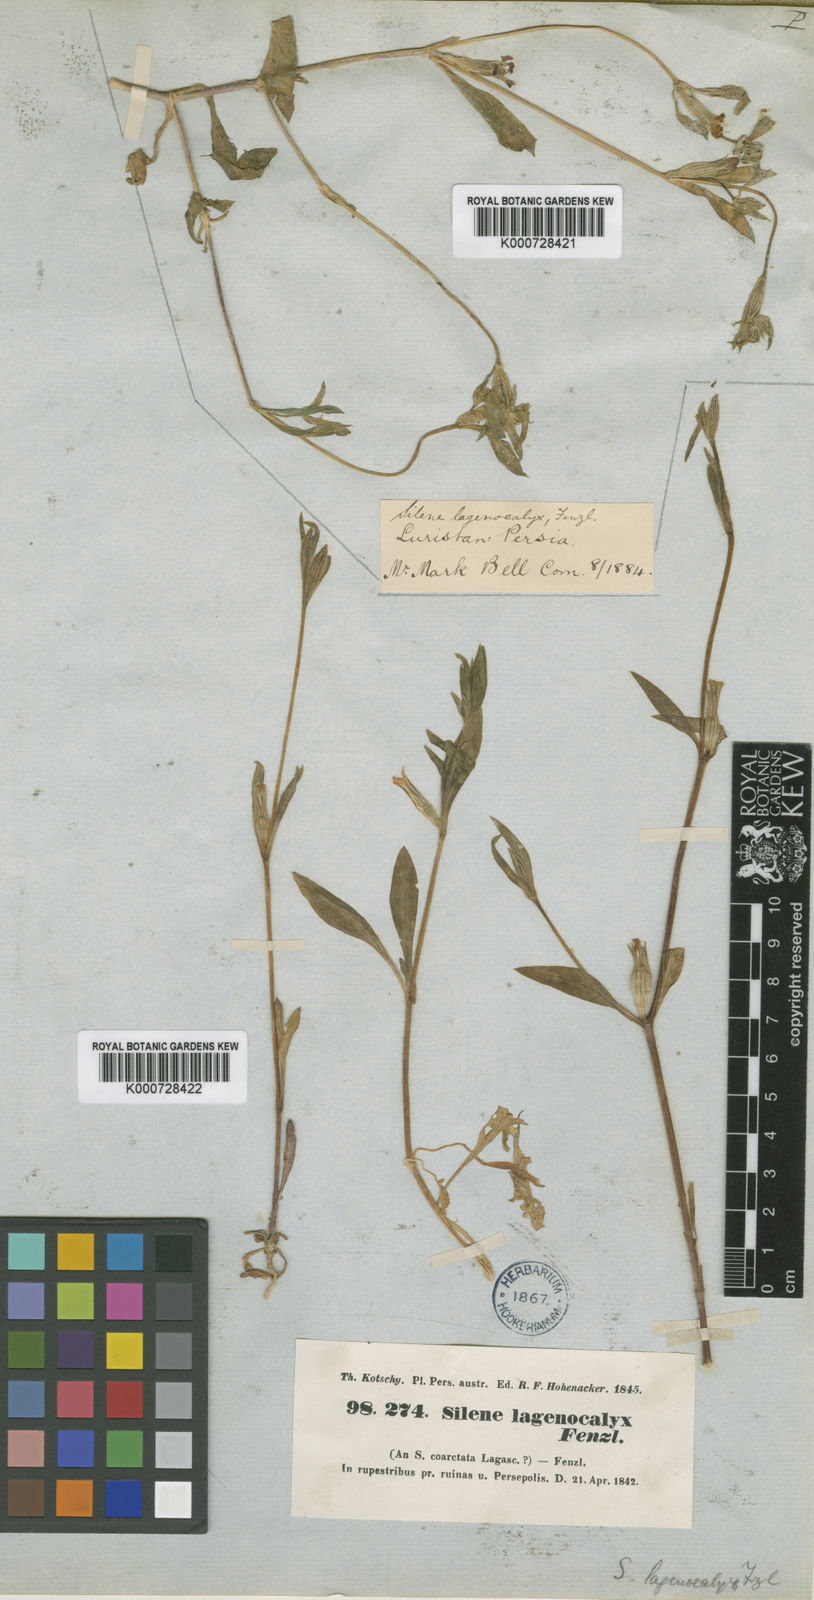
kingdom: Plantae
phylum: Tracheophyta
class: Magnoliopsida
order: Caryophyllales
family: Caryophyllaceae
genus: Silene
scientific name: Silene lagenocalyx
